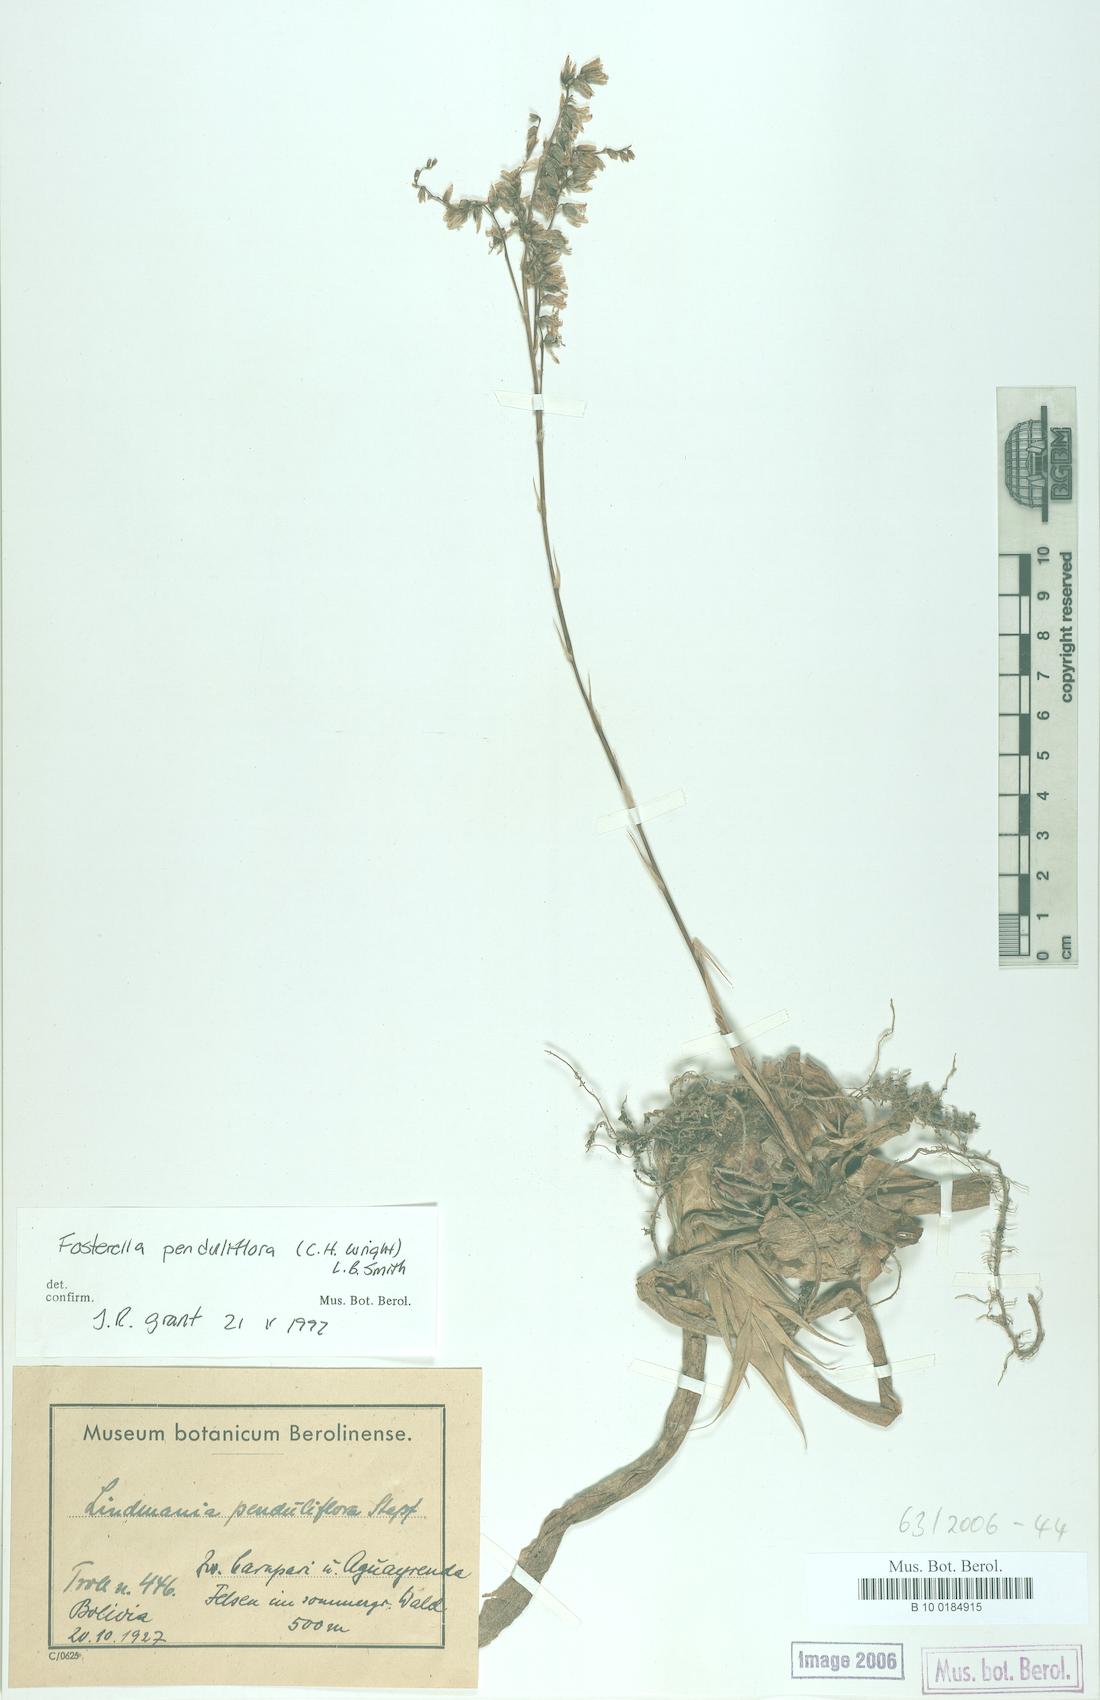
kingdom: Plantae
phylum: Tracheophyta
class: Liliopsida
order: Poales
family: Bromeliaceae
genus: Fosterella
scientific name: Fosterella penduliflora
